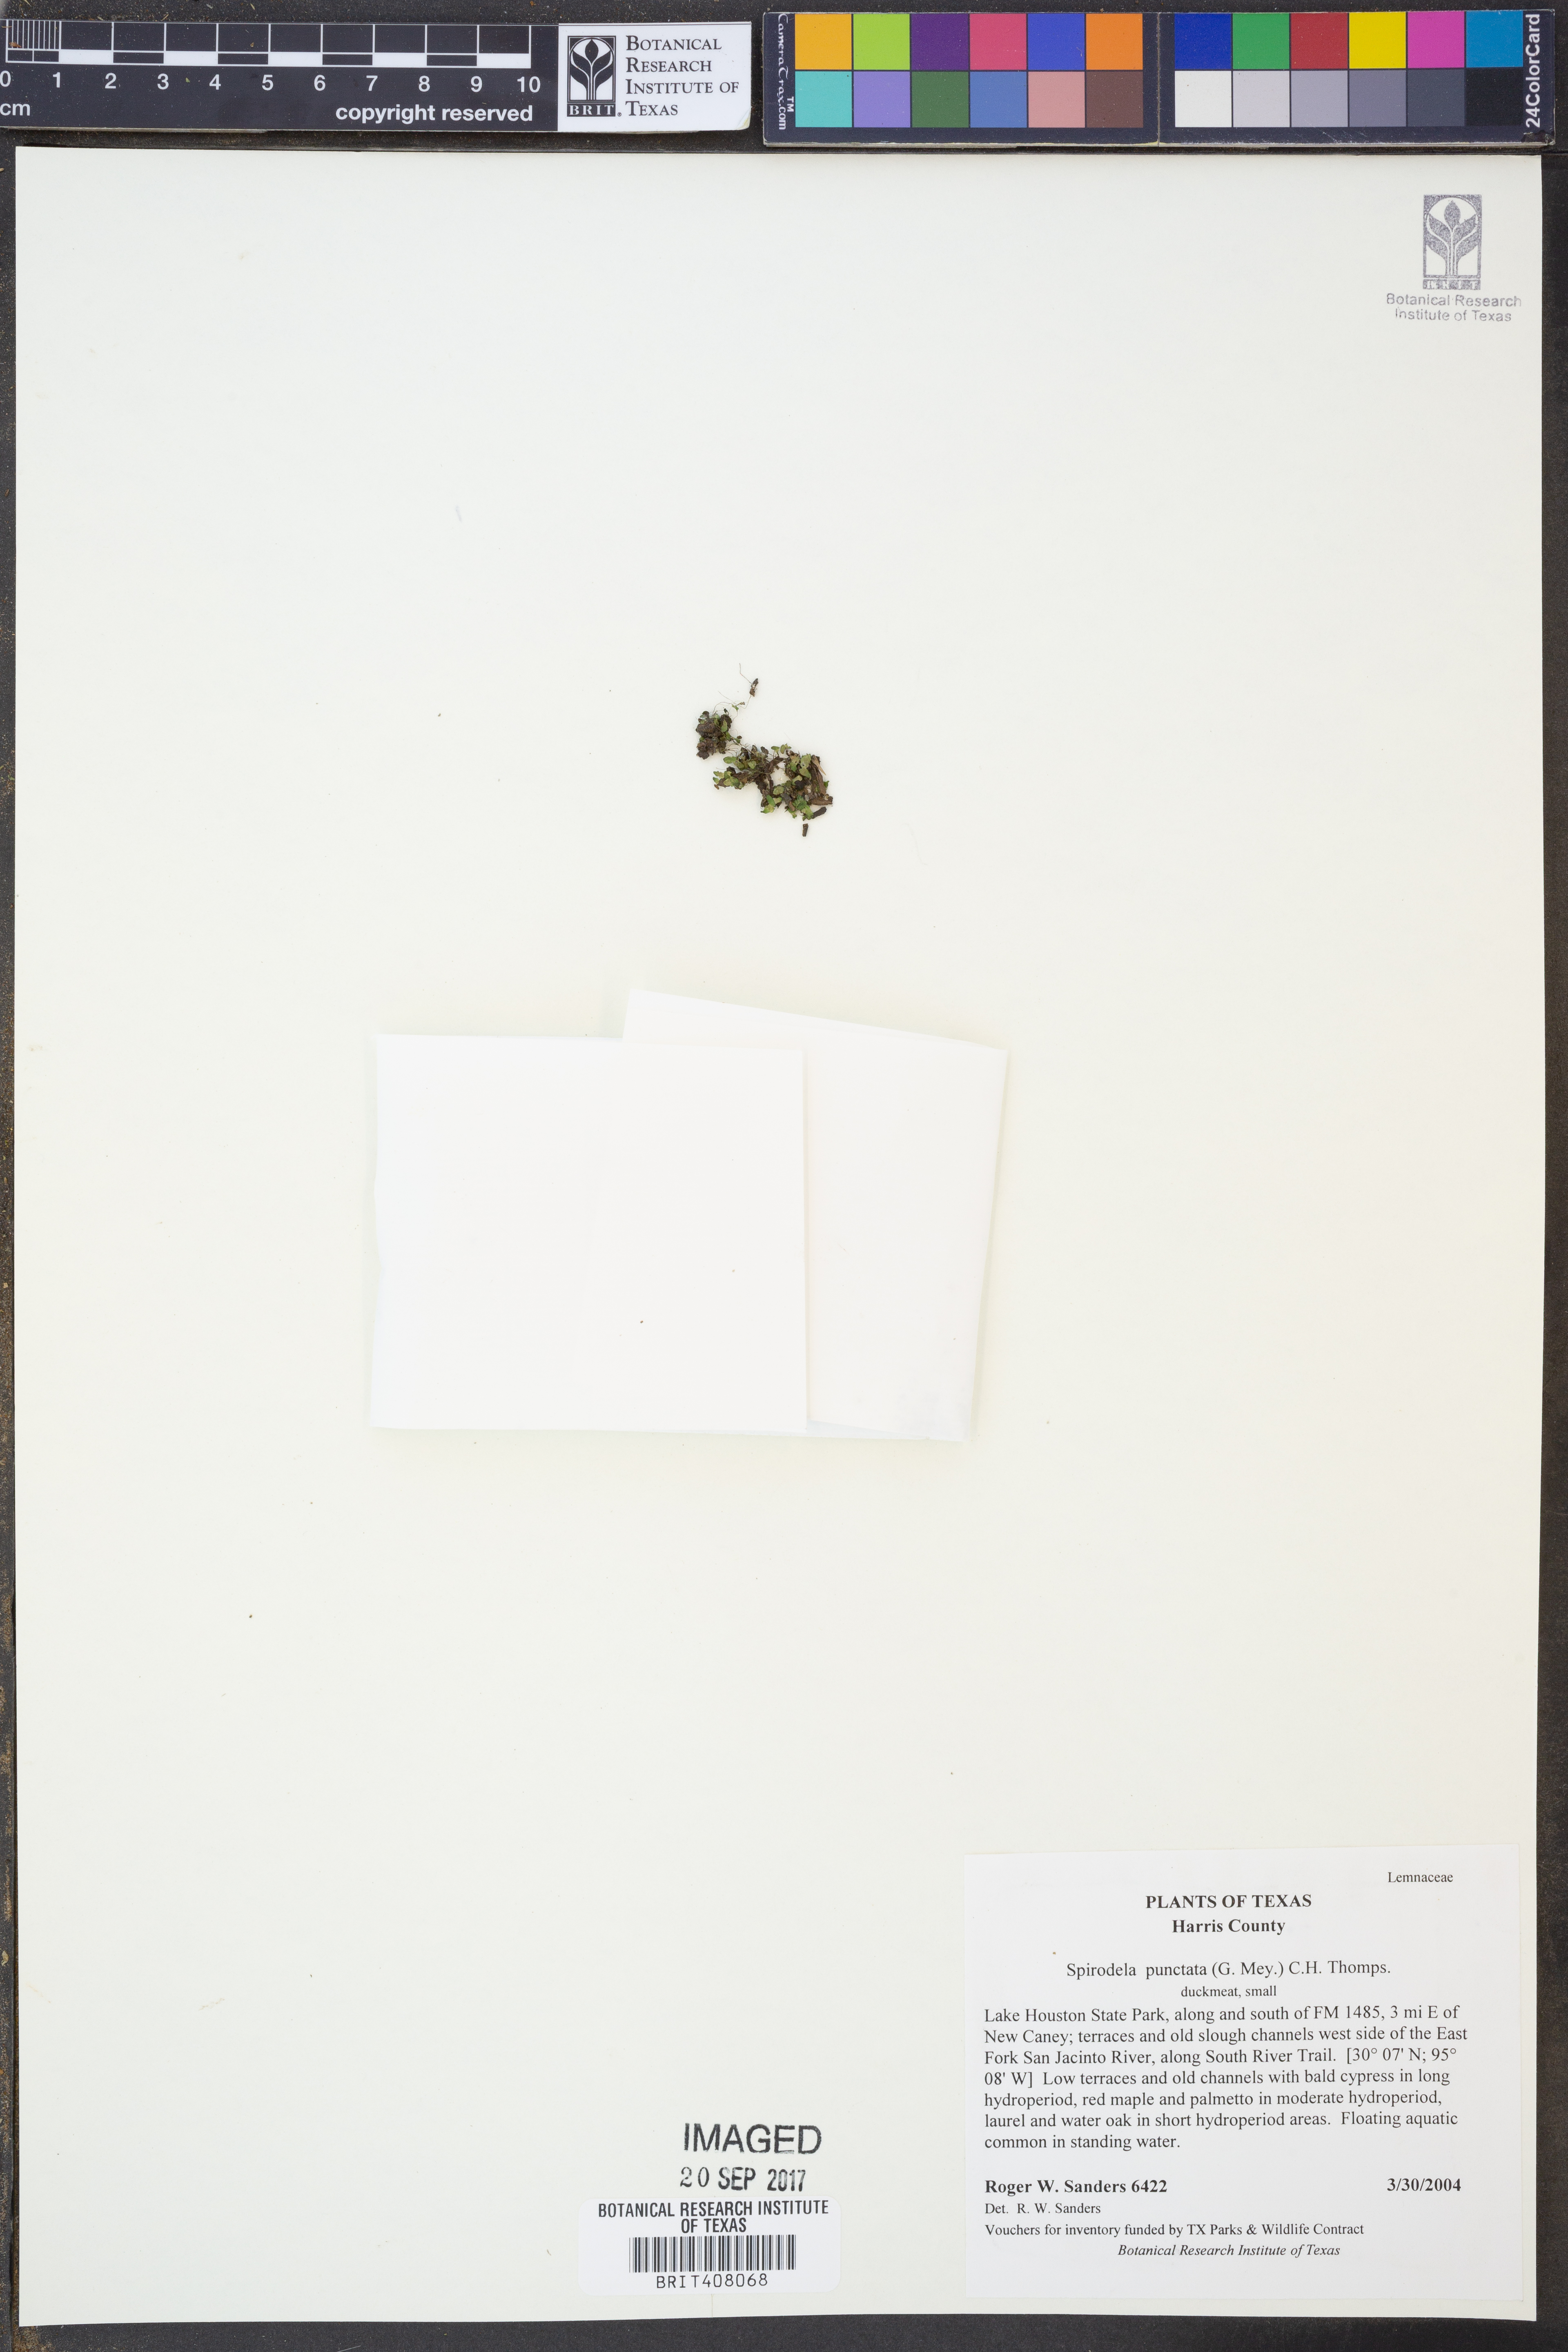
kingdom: Plantae
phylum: Tracheophyta
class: Liliopsida
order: Alismatales
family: Araceae
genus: Spirodela
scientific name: Spirodela punctata
